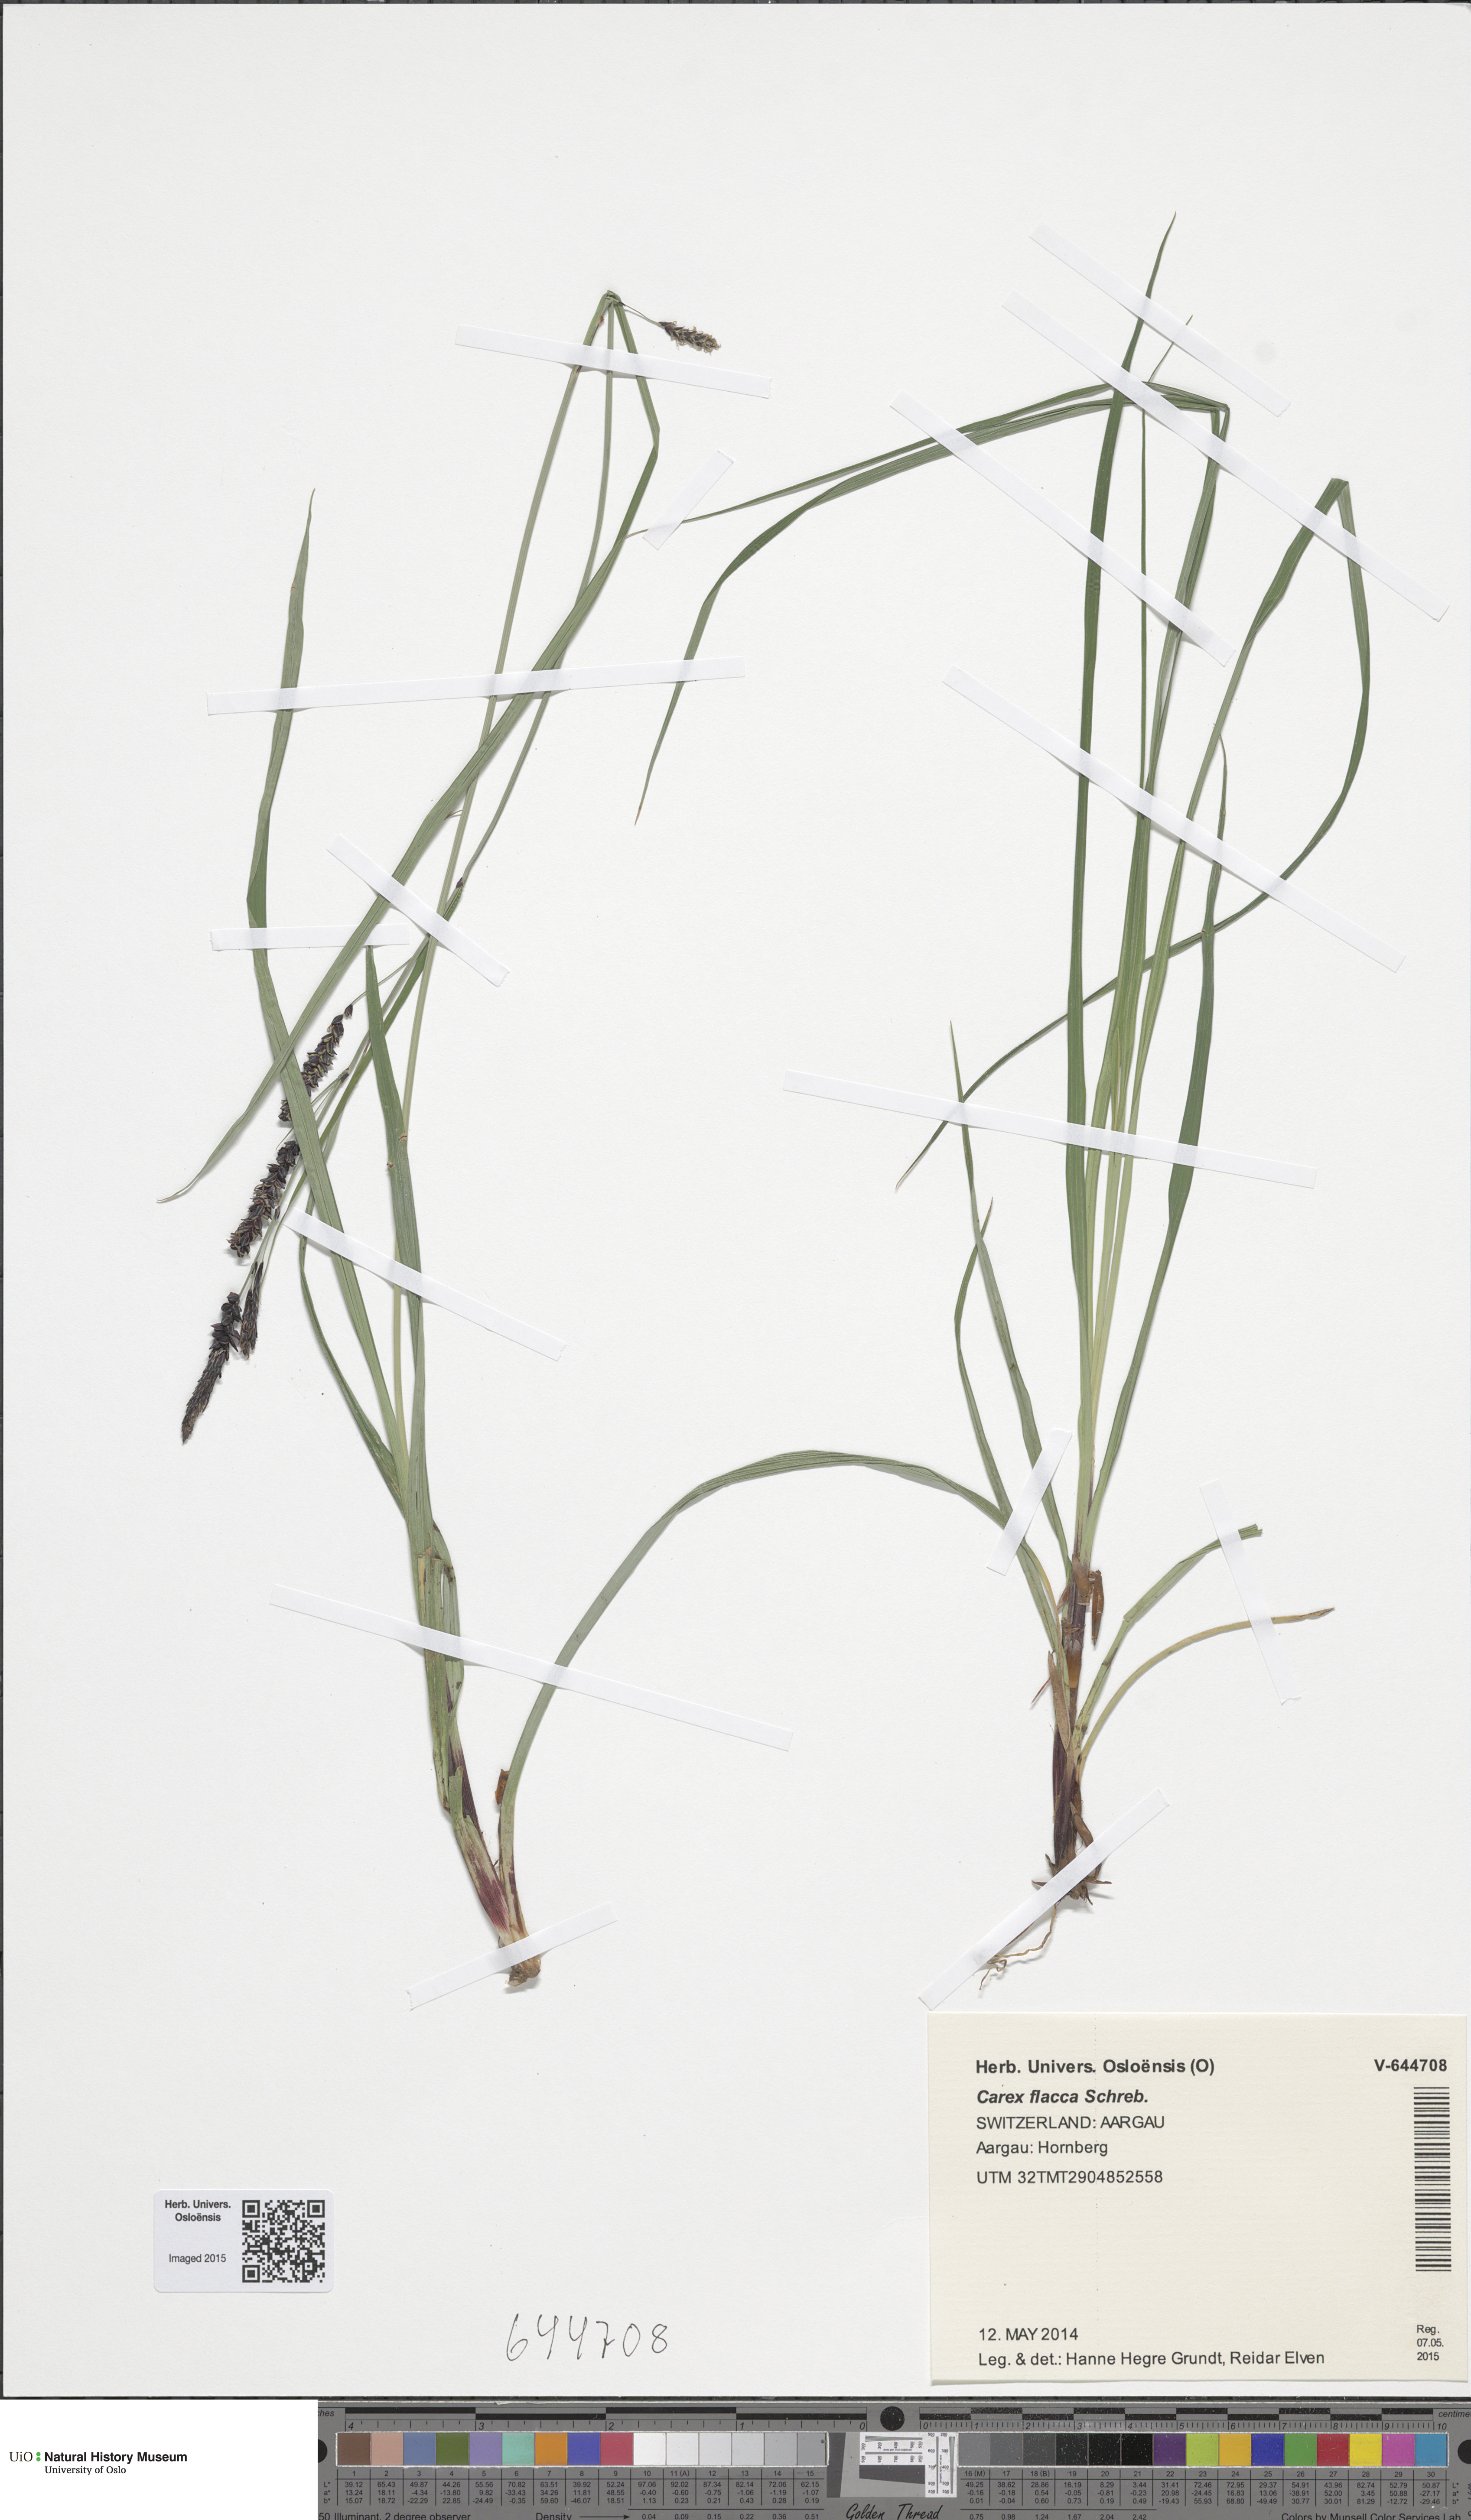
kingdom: Plantae
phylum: Tracheophyta
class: Liliopsida
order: Poales
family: Cyperaceae
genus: Carex
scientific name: Carex flacca
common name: Glaucous sedge
